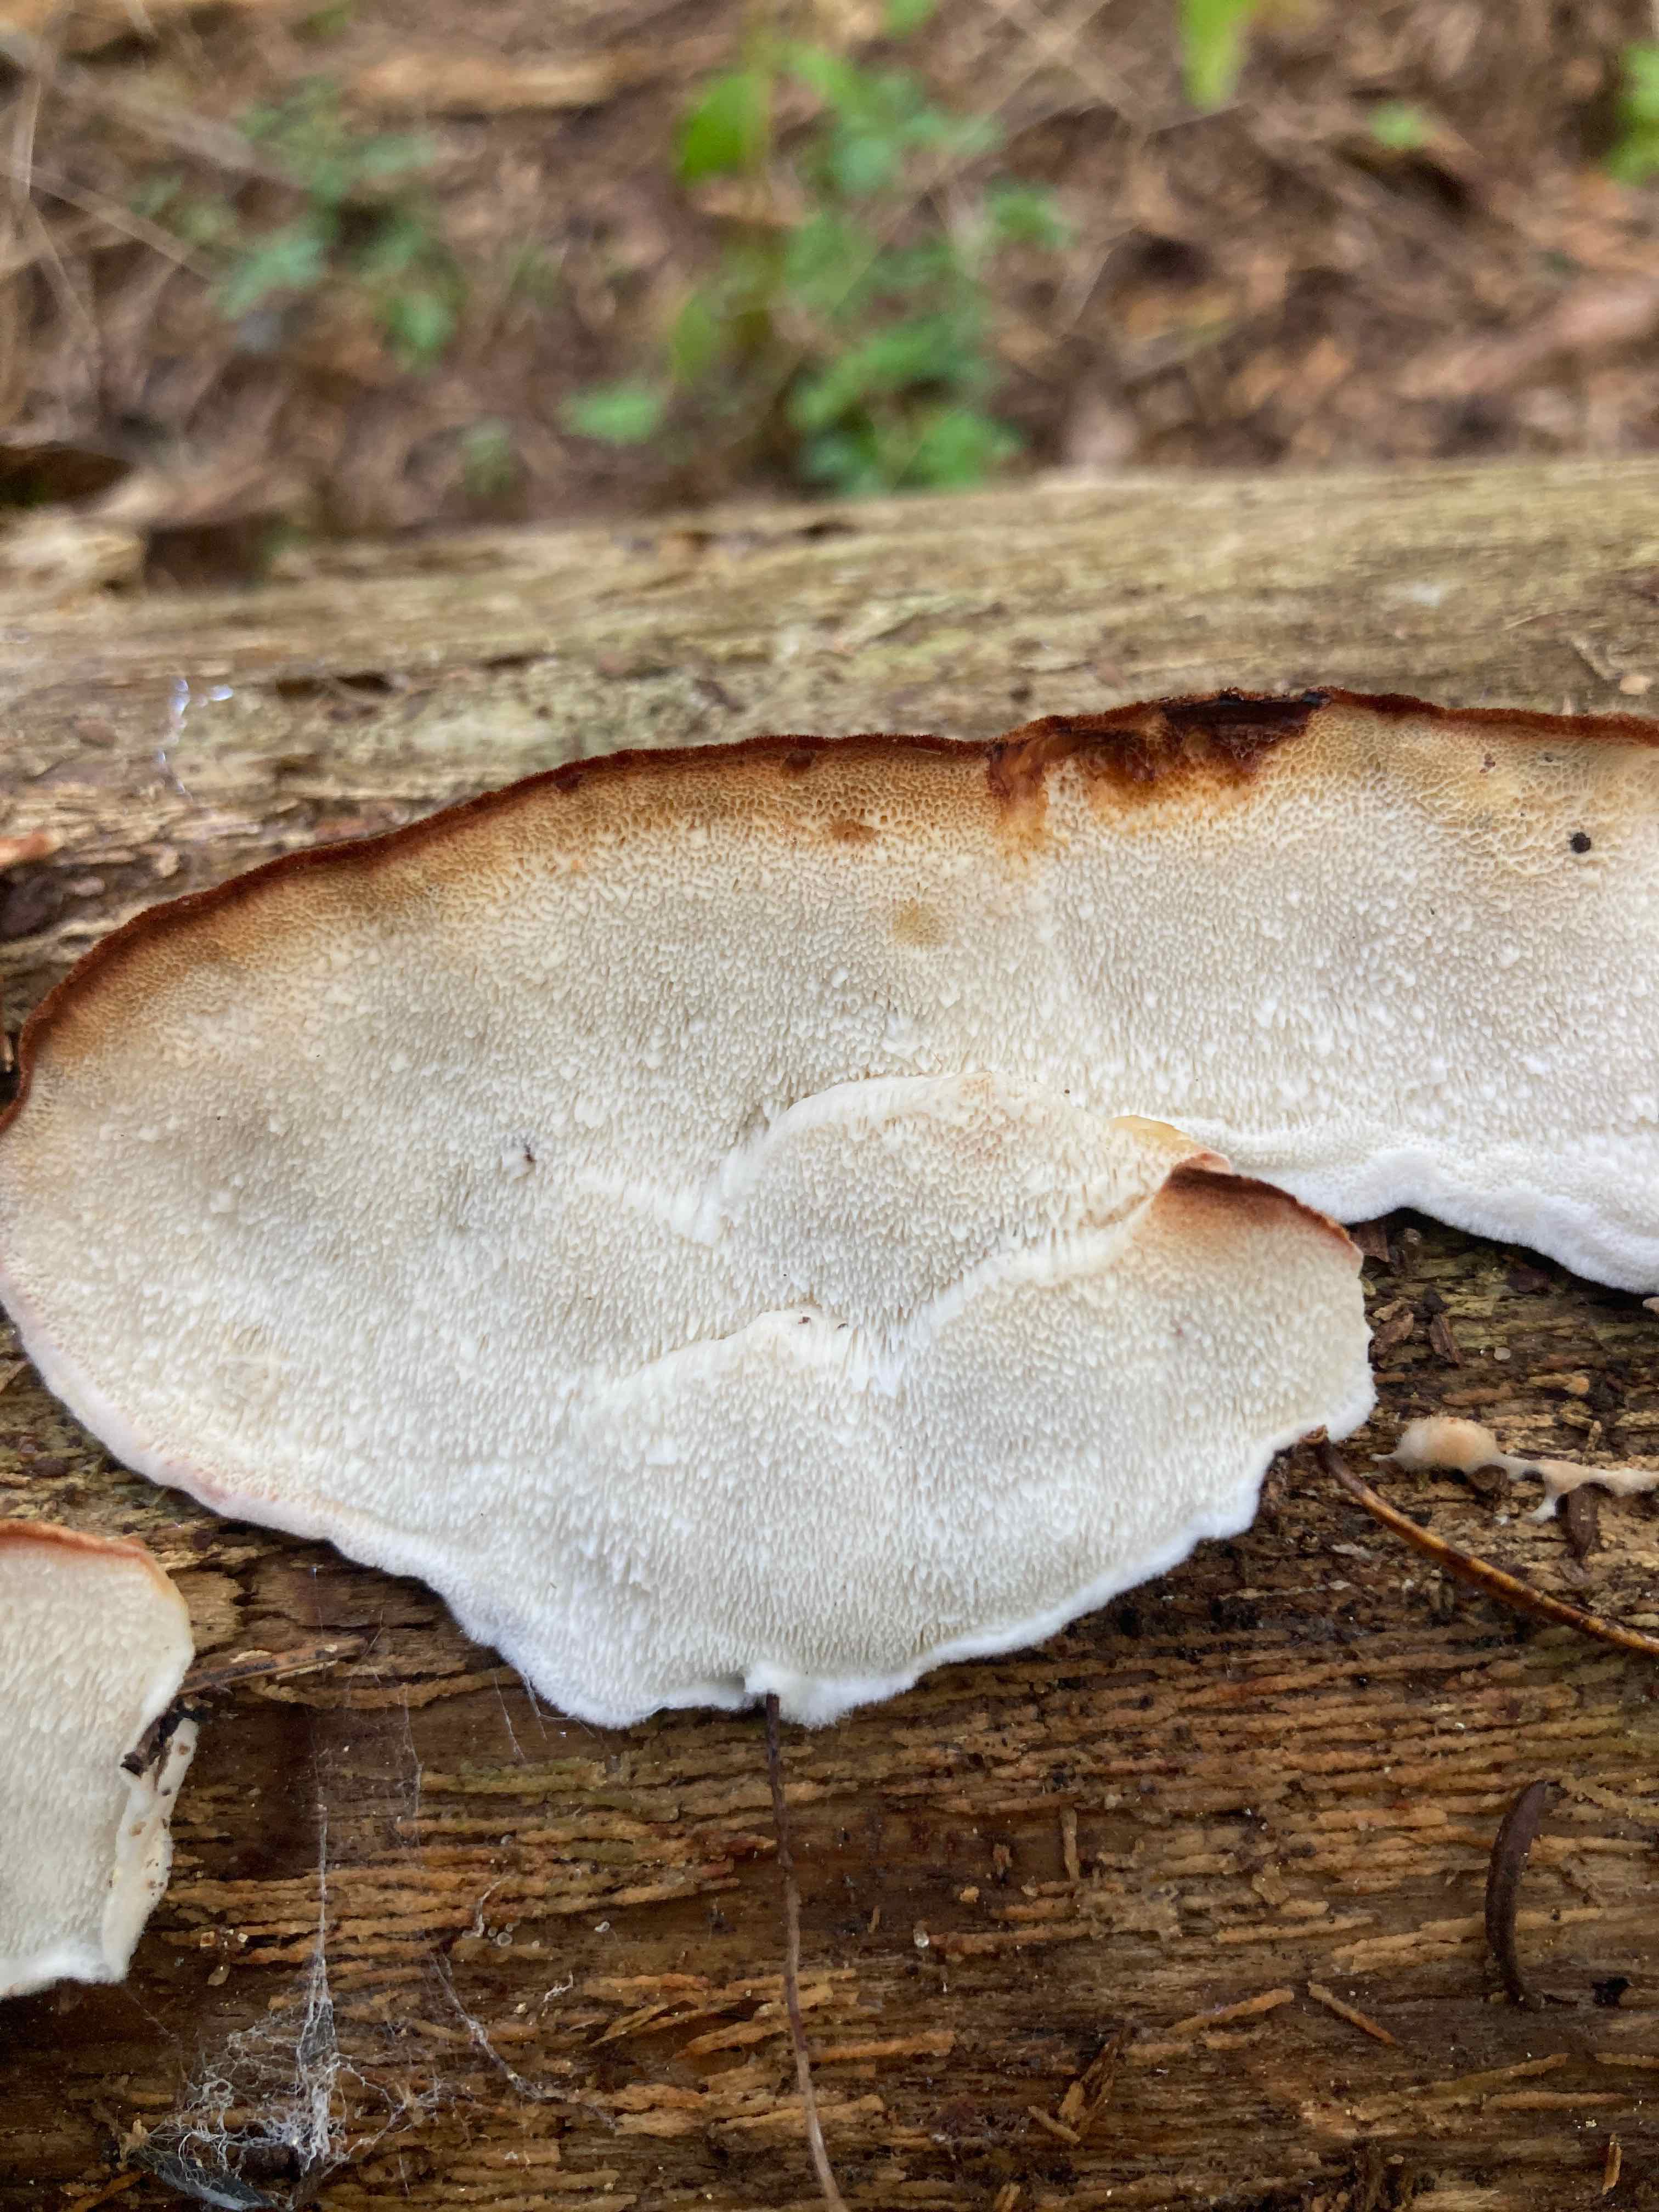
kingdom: Fungi
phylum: Basidiomycota
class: Agaricomycetes
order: Polyporales
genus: Fuscopostia
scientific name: Fuscopostia fragilis
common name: brunende kødporesvamp
